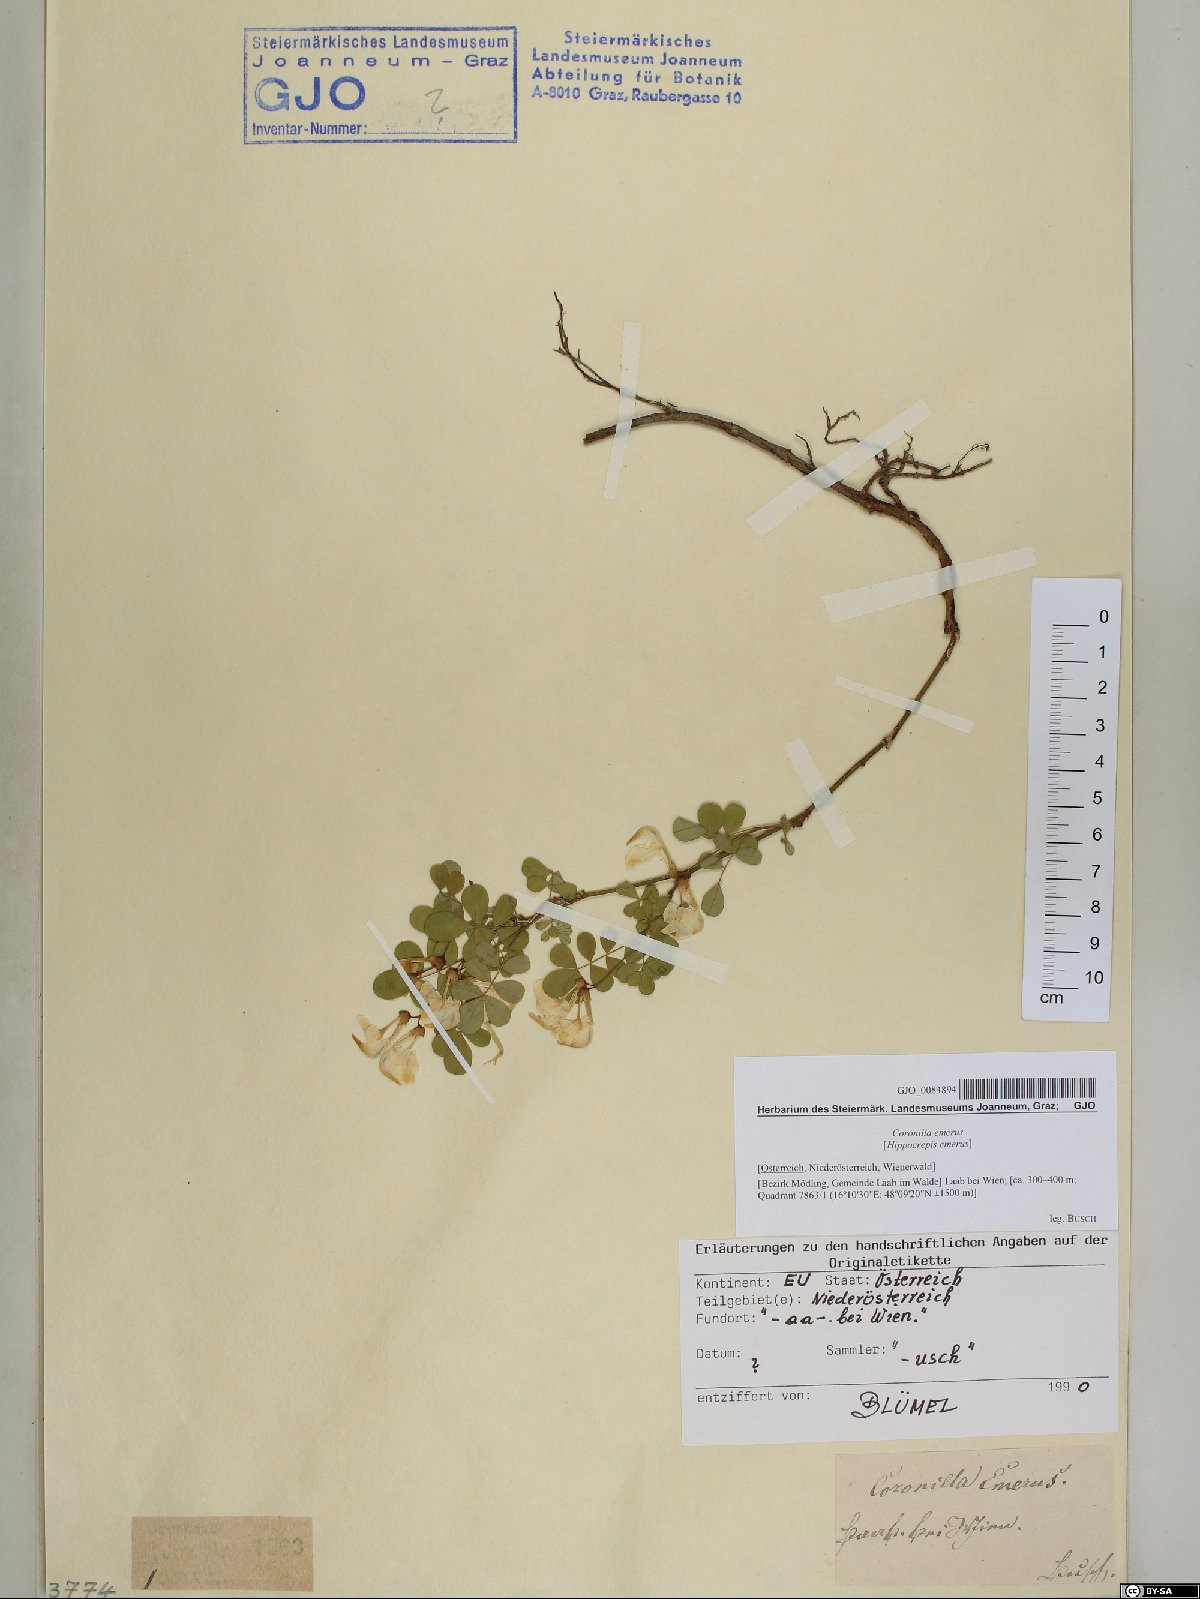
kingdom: Plantae
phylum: Tracheophyta
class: Magnoliopsida
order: Fabales
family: Fabaceae
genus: Hippocrepis
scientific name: Hippocrepis emerus
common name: Scorpion senna
